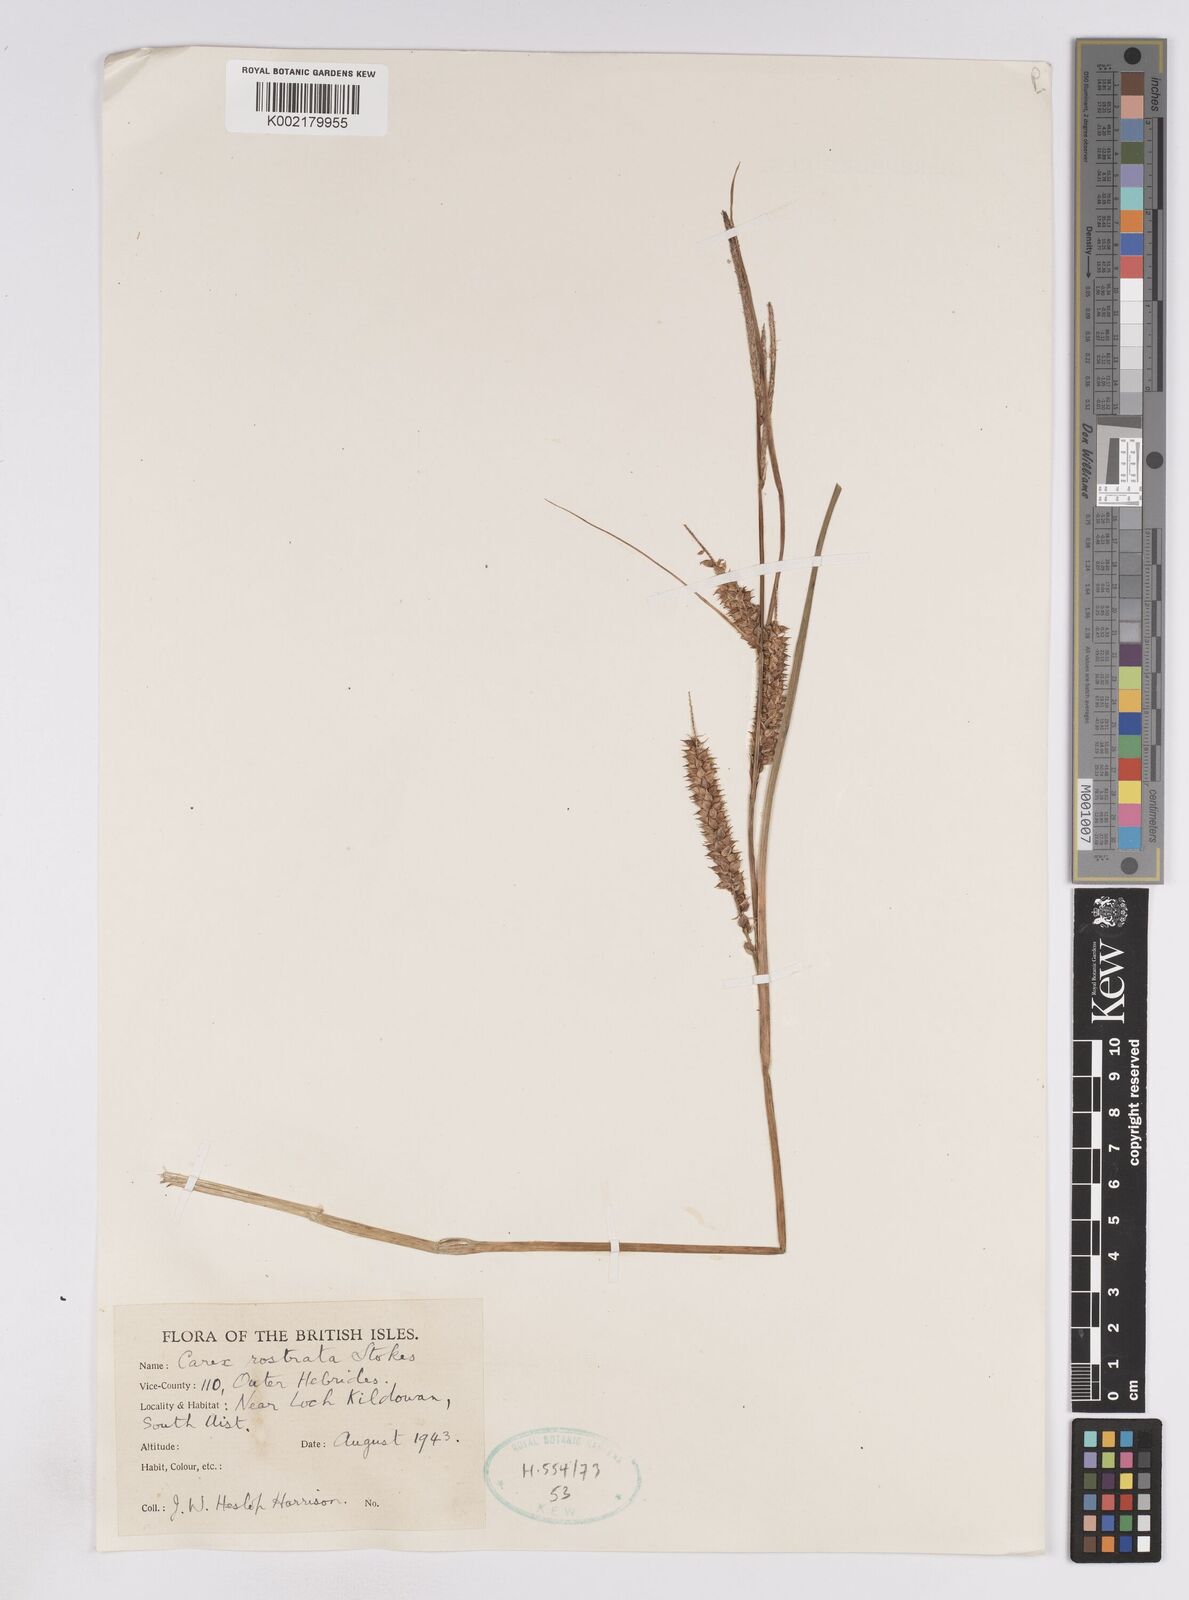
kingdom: Plantae
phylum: Tracheophyta
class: Liliopsida
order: Poales
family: Cyperaceae
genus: Carex
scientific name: Carex utriculata
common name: Beaked sedge
